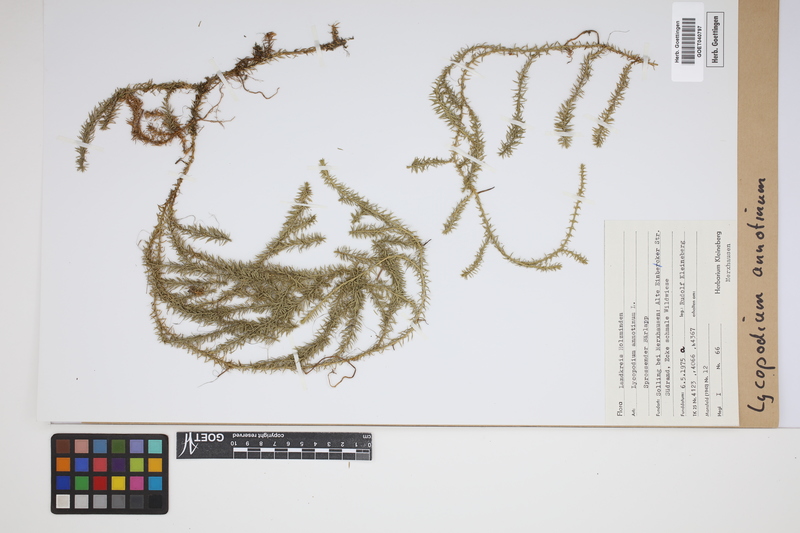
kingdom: Plantae
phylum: Tracheophyta
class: Lycopodiopsida
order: Lycopodiales
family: Lycopodiaceae
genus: Spinulum
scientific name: Spinulum annotinum
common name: Interrupted club-moss
